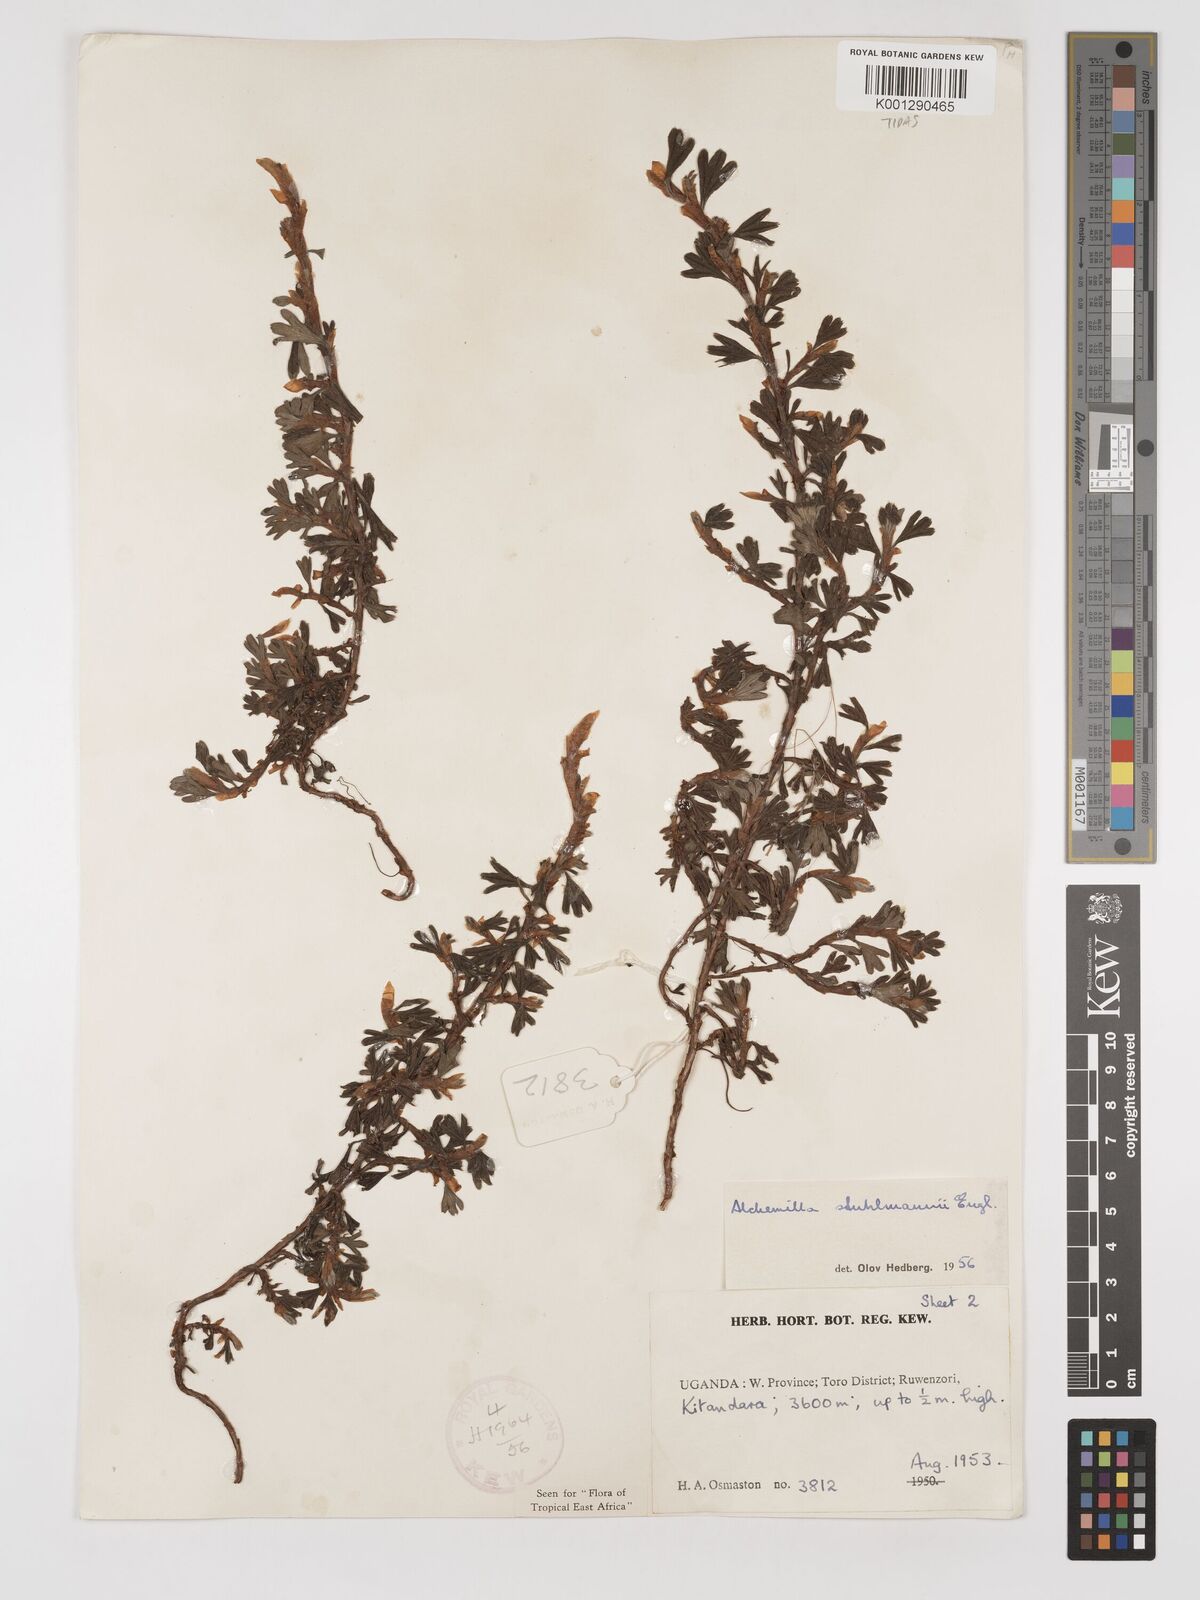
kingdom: Plantae
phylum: Tracheophyta
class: Magnoliopsida
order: Rosales
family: Rosaceae
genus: Alchemilla
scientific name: Alchemilla stuhlmannii
